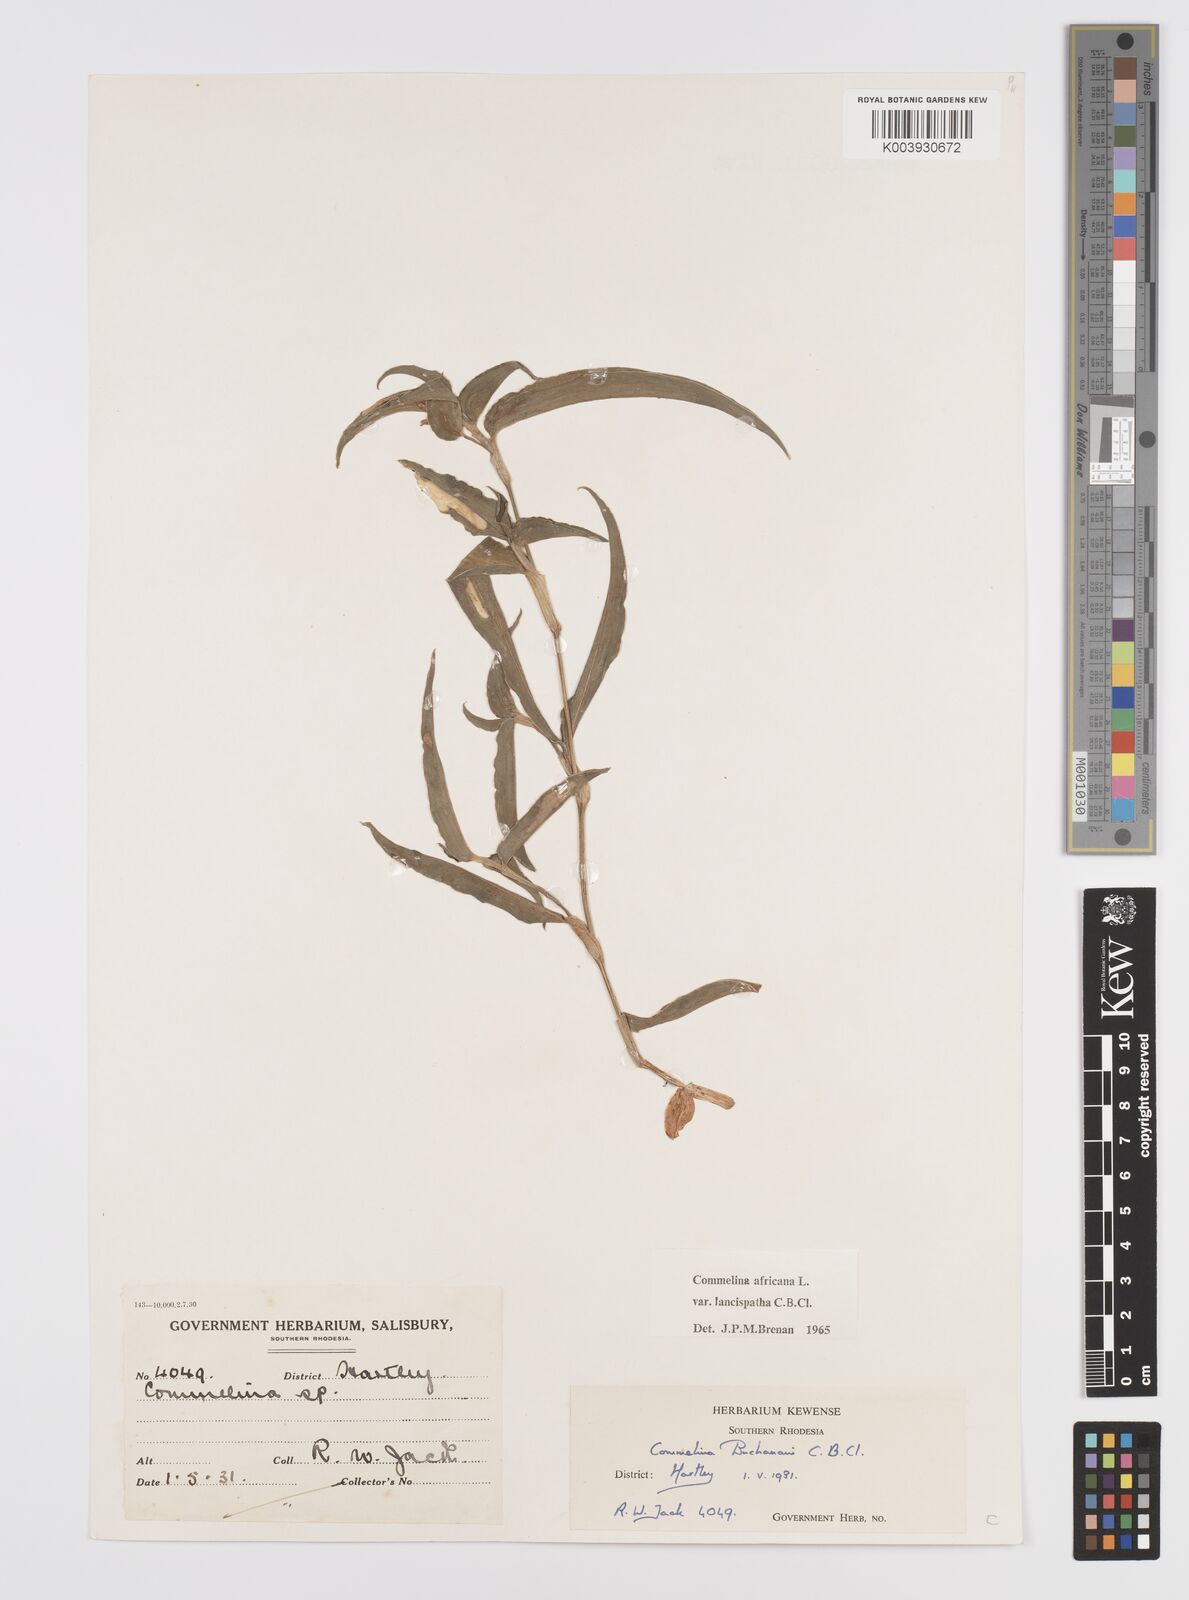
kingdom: Plantae
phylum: Tracheophyta
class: Liliopsida
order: Commelinales
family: Commelinaceae
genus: Commelina
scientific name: Commelina africana
